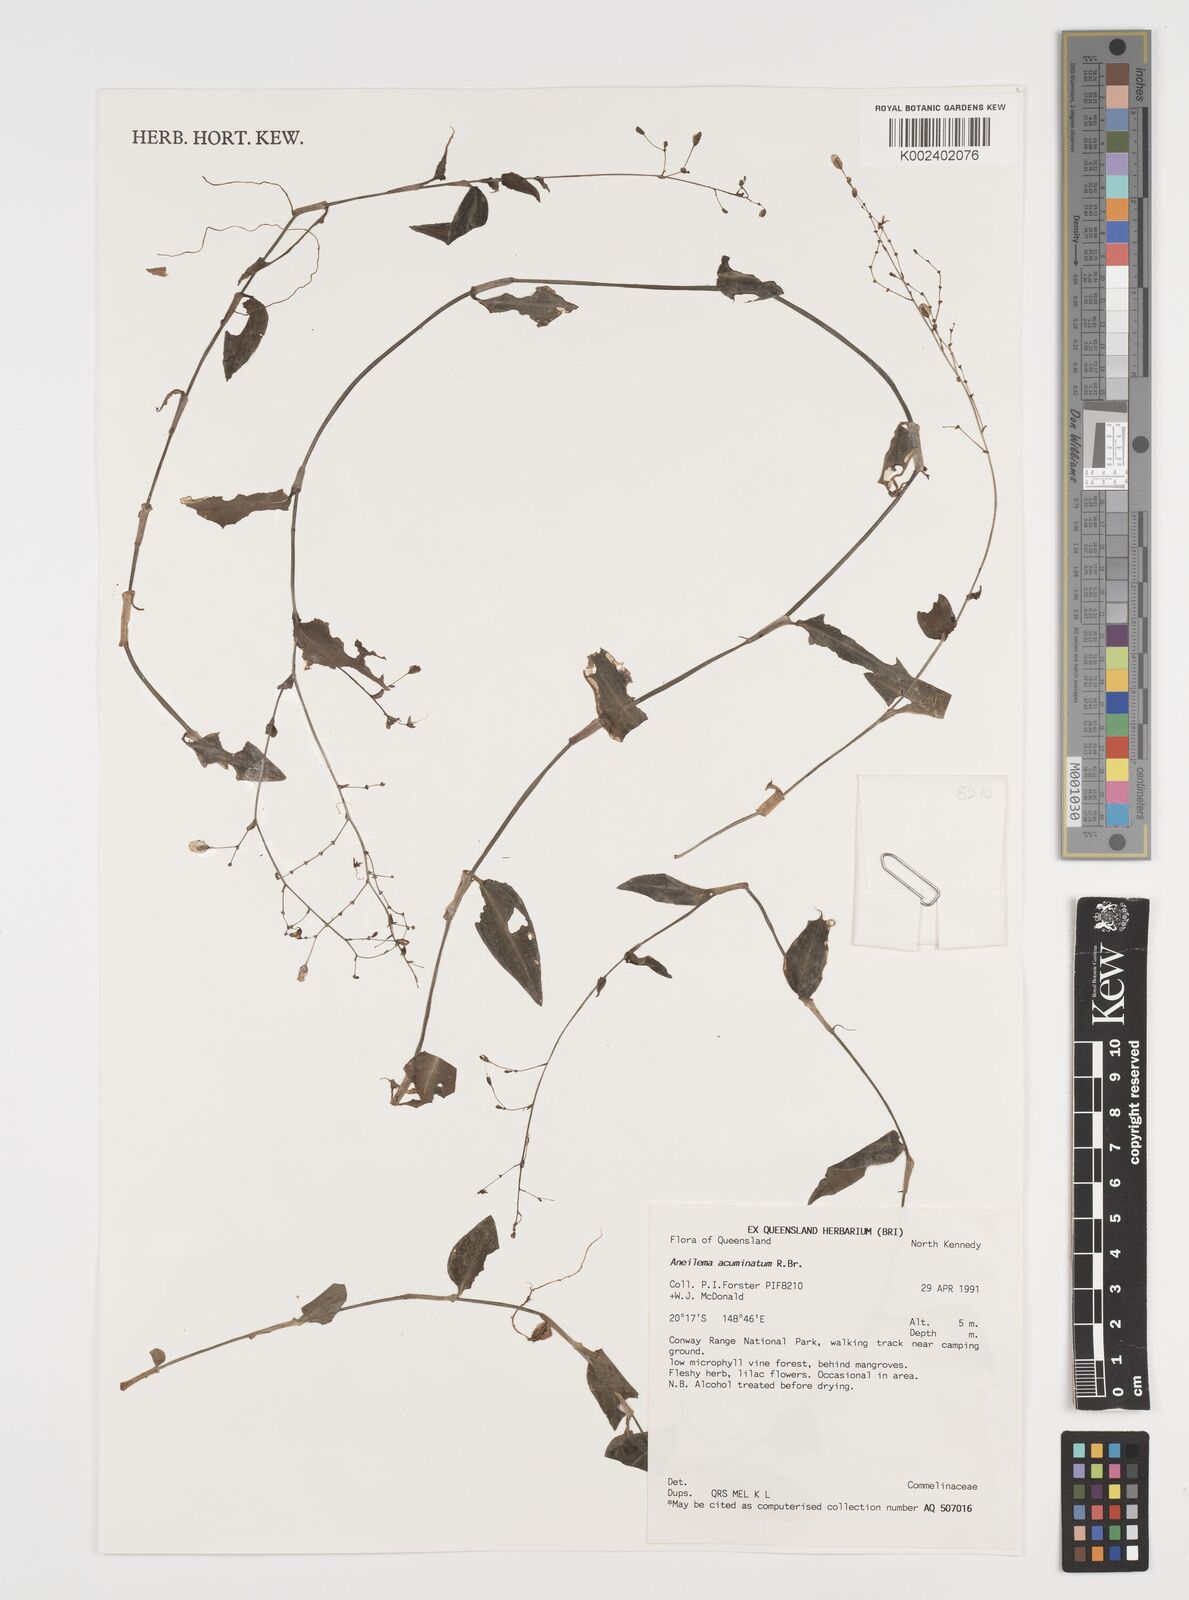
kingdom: Plantae
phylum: Tracheophyta
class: Liliopsida
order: Commelinales
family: Commelinaceae
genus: Aneilema
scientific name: Aneilema acuminatum
